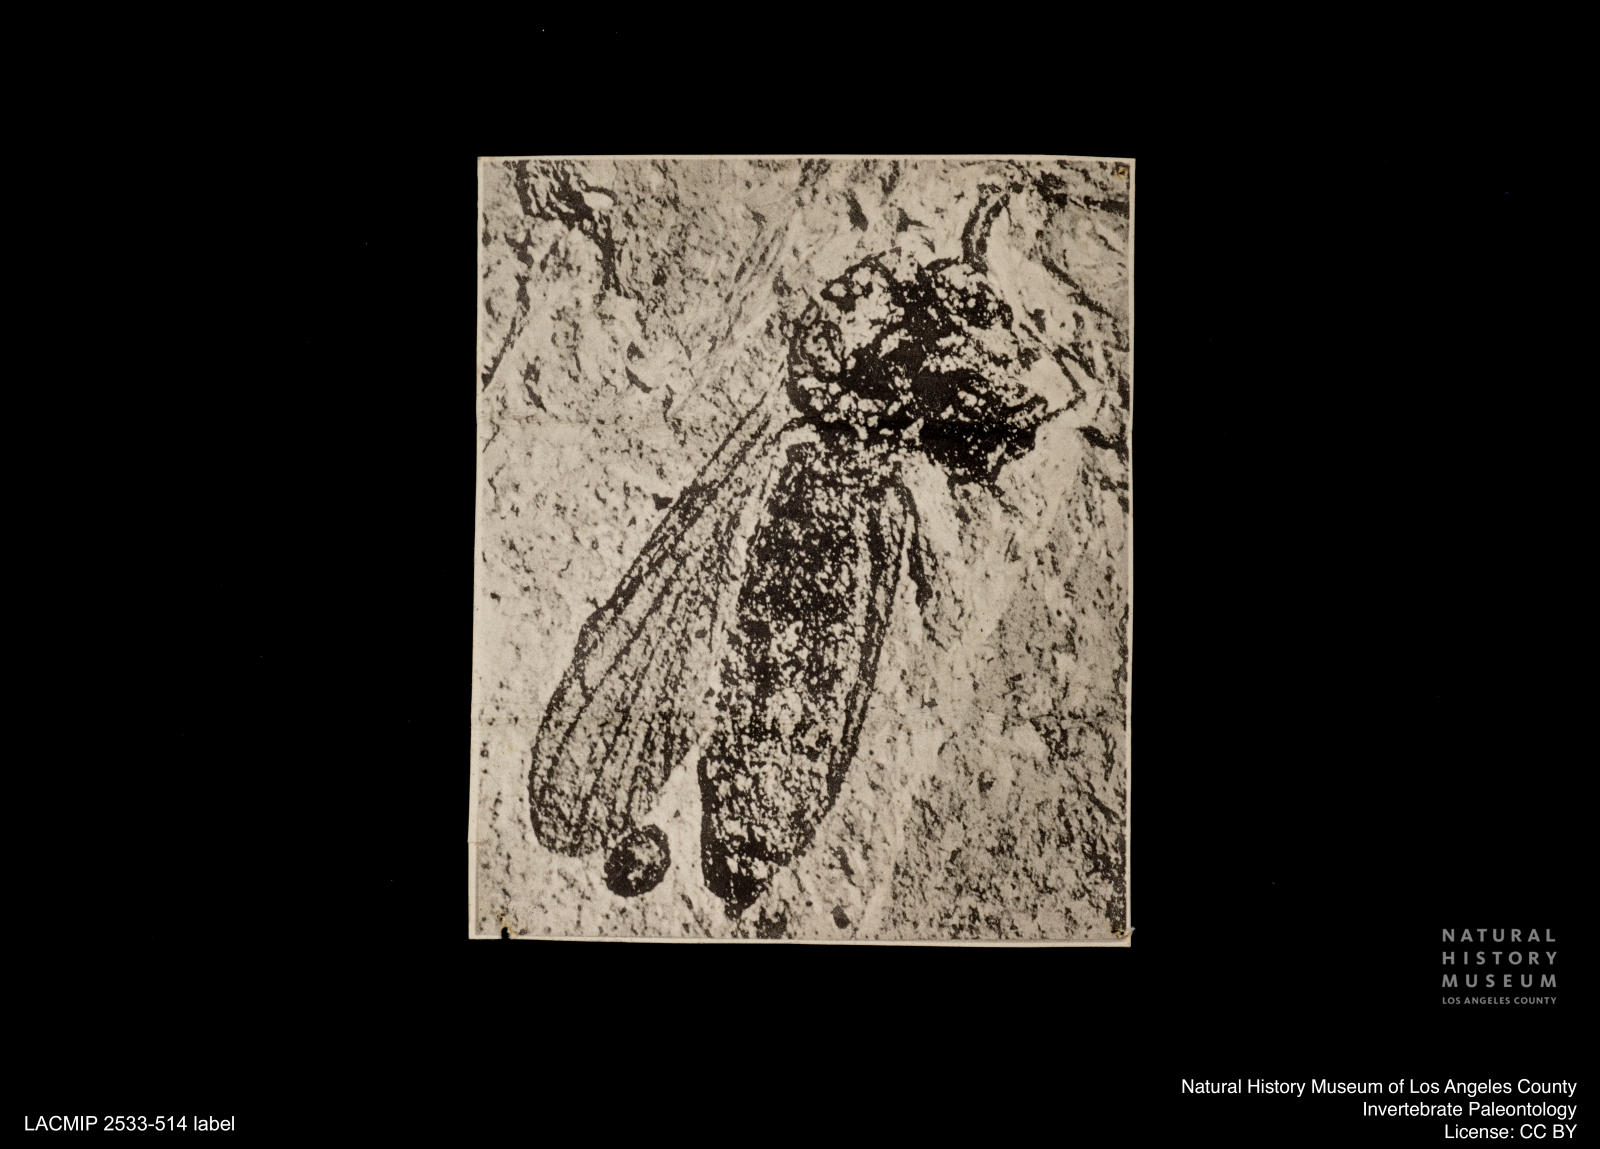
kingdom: Animalia
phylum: Arthropoda
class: Insecta
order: Diptera
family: Mycetophilidae
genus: Boletina
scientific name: Boletina angustipennis
